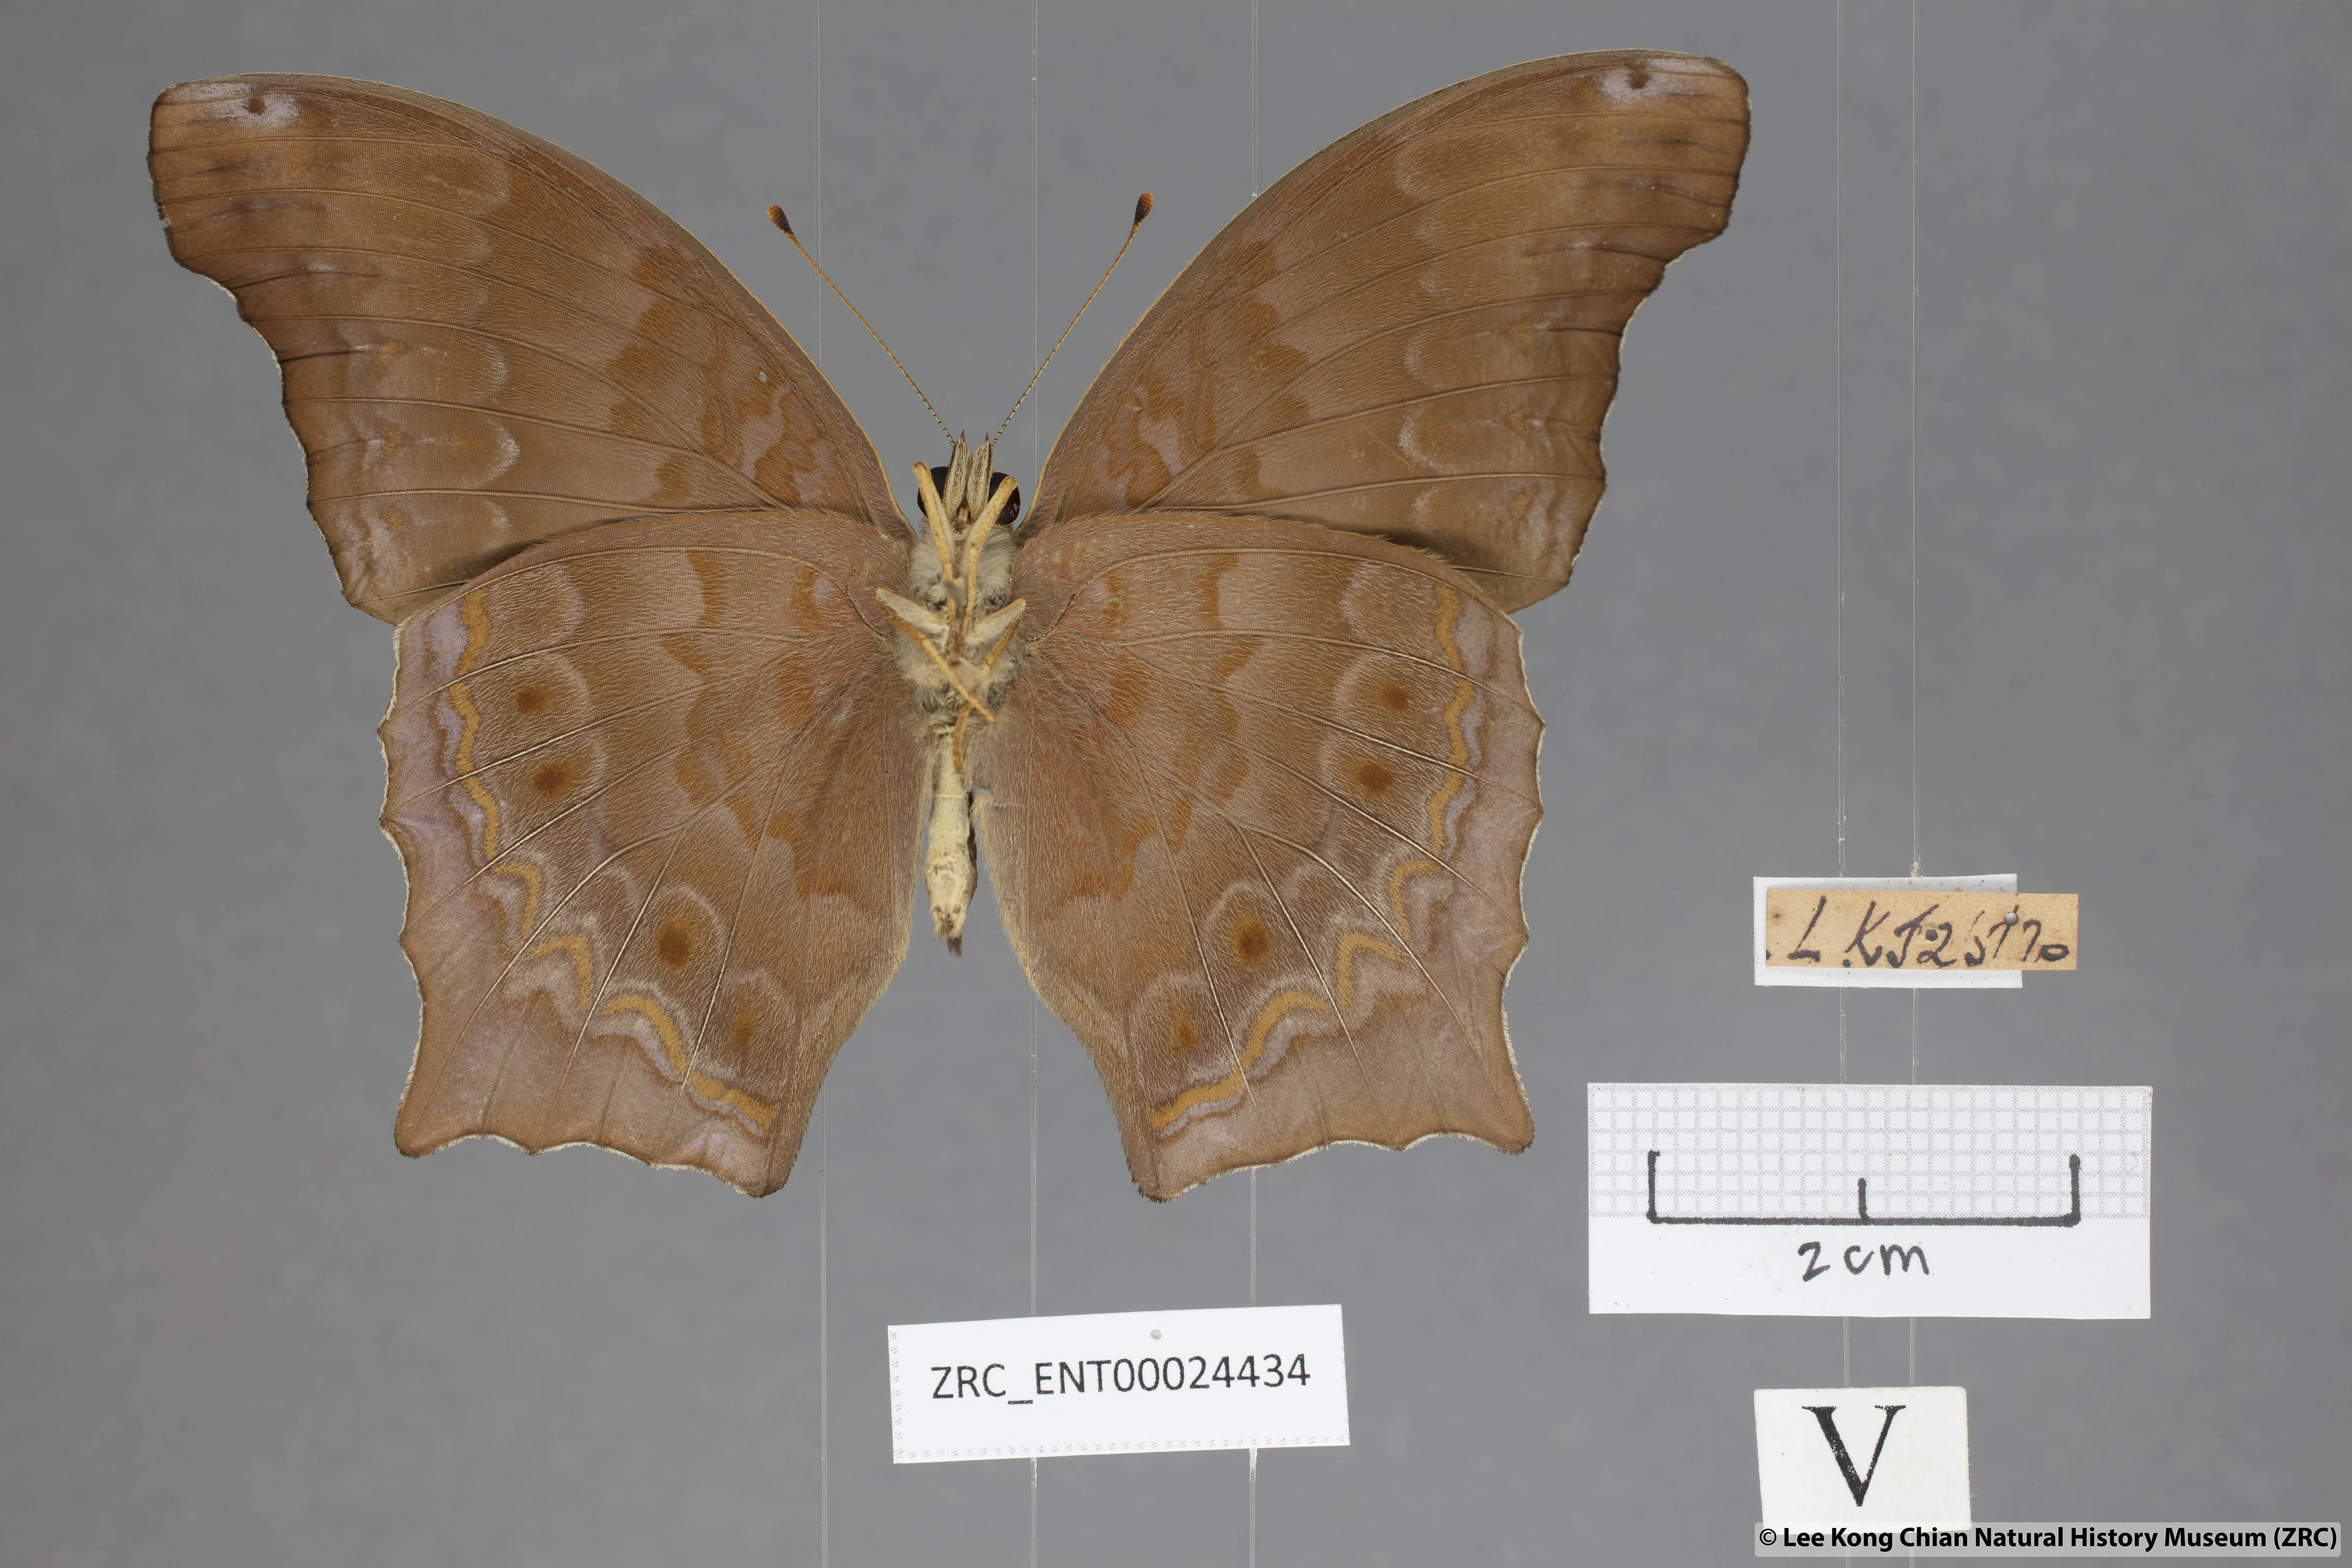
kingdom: Animalia
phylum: Arthropoda
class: Insecta
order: Lepidoptera
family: Nymphalidae
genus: Terinos
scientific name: Terinos terpander
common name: Royal assyrian
